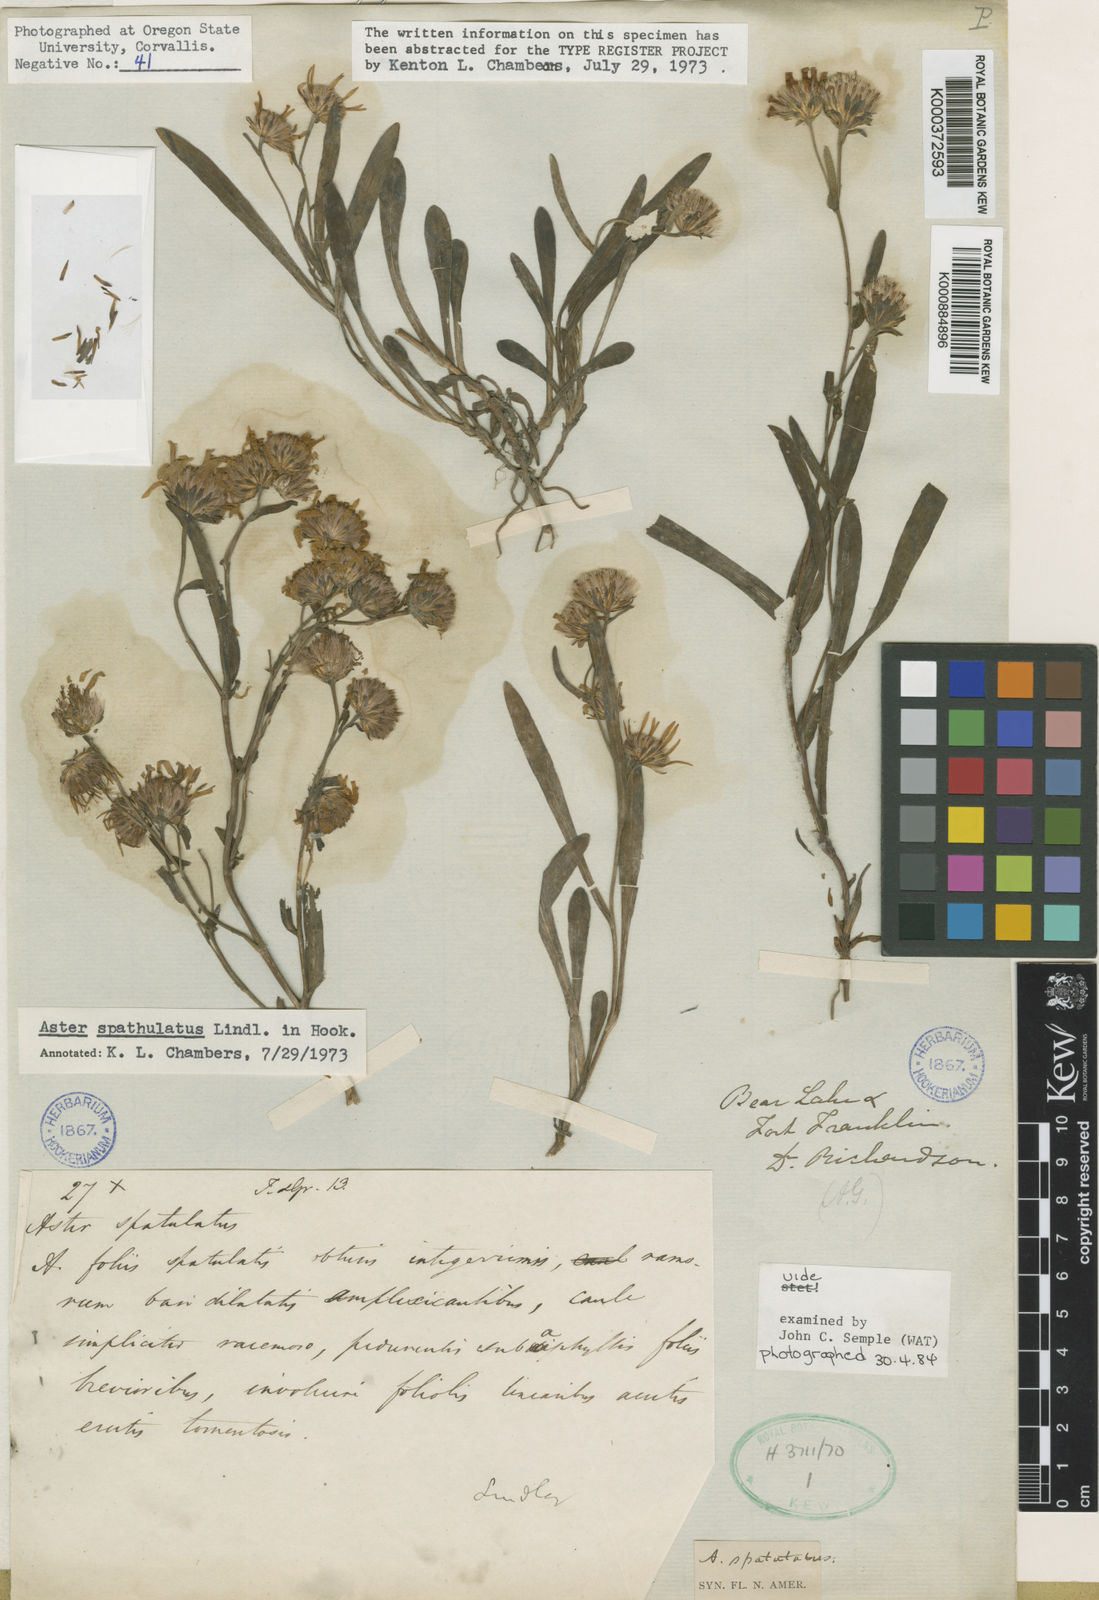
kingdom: Plantae
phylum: Tracheophyta
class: Magnoliopsida
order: Asterales
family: Asteraceae
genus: Symphyotrichum
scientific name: Symphyotrichum spathulatum
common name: Western mountain aster
